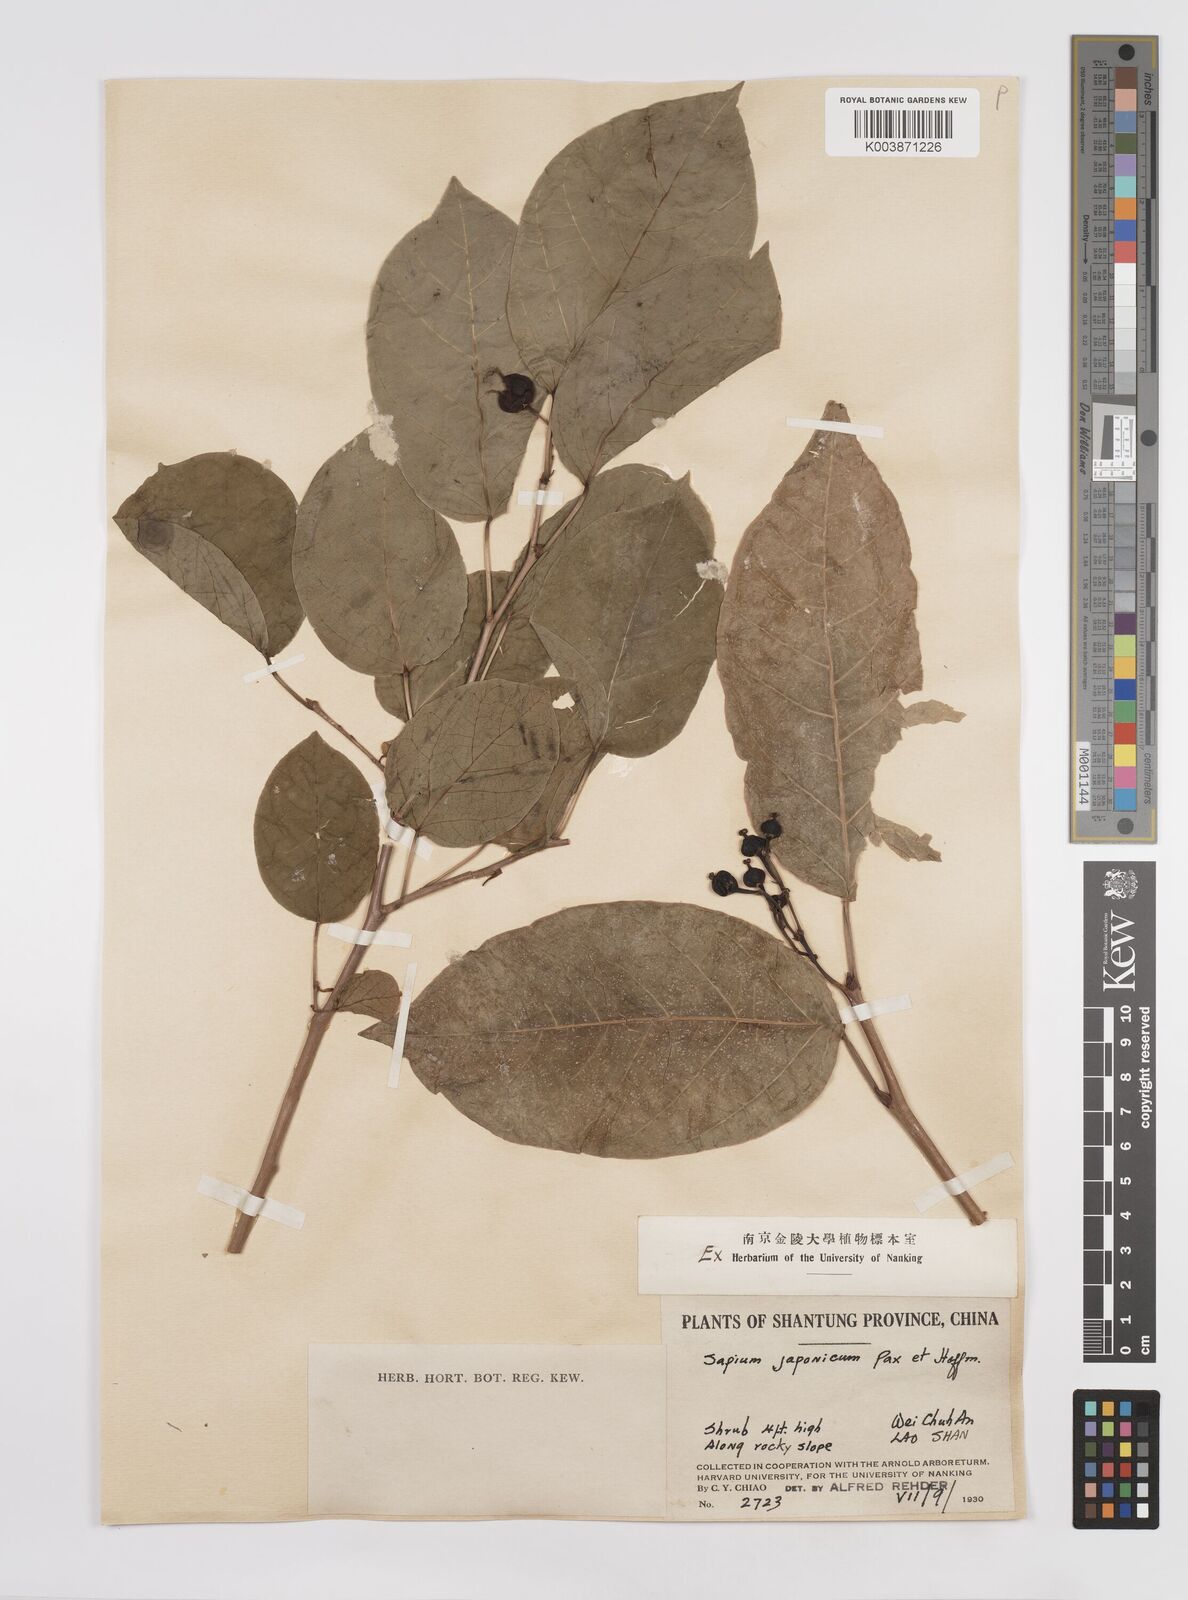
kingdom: Plantae
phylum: Tracheophyta
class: Magnoliopsida
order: Malpighiales
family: Euphorbiaceae
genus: Neoshirakia
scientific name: Neoshirakia japonica
